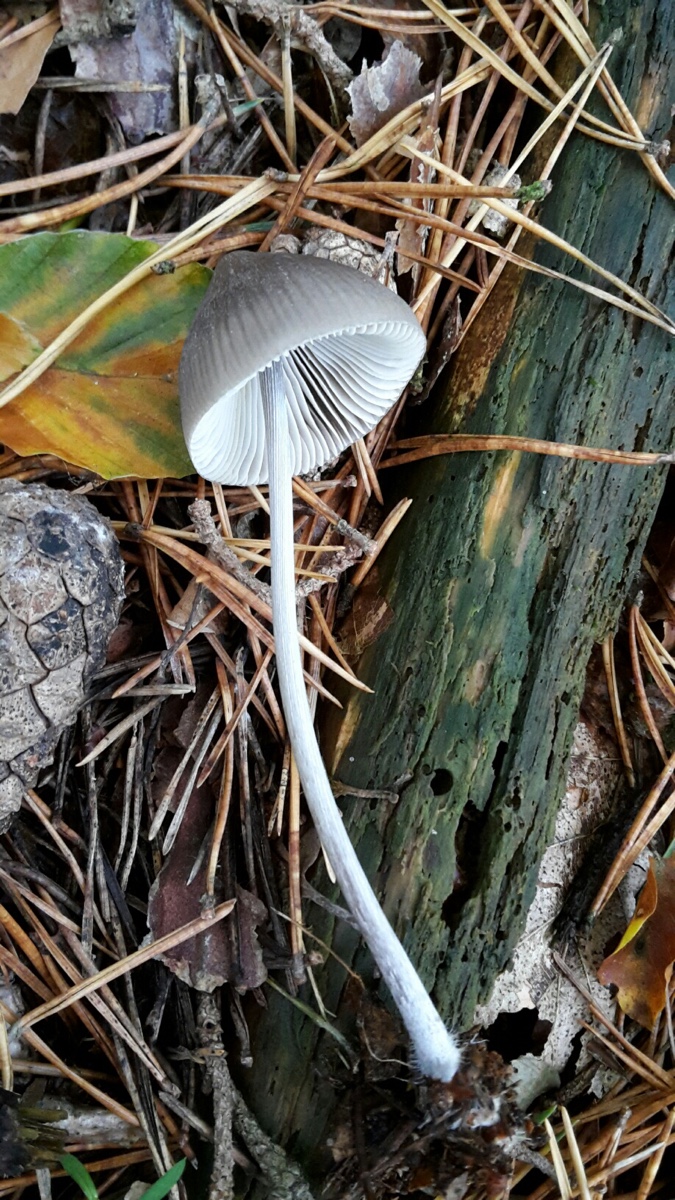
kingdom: Fungi
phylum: Basidiomycota
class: Agaricomycetes
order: Agaricales
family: Mycenaceae
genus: Mycena
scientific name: Mycena polygramma
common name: mangestribet huesvamp
